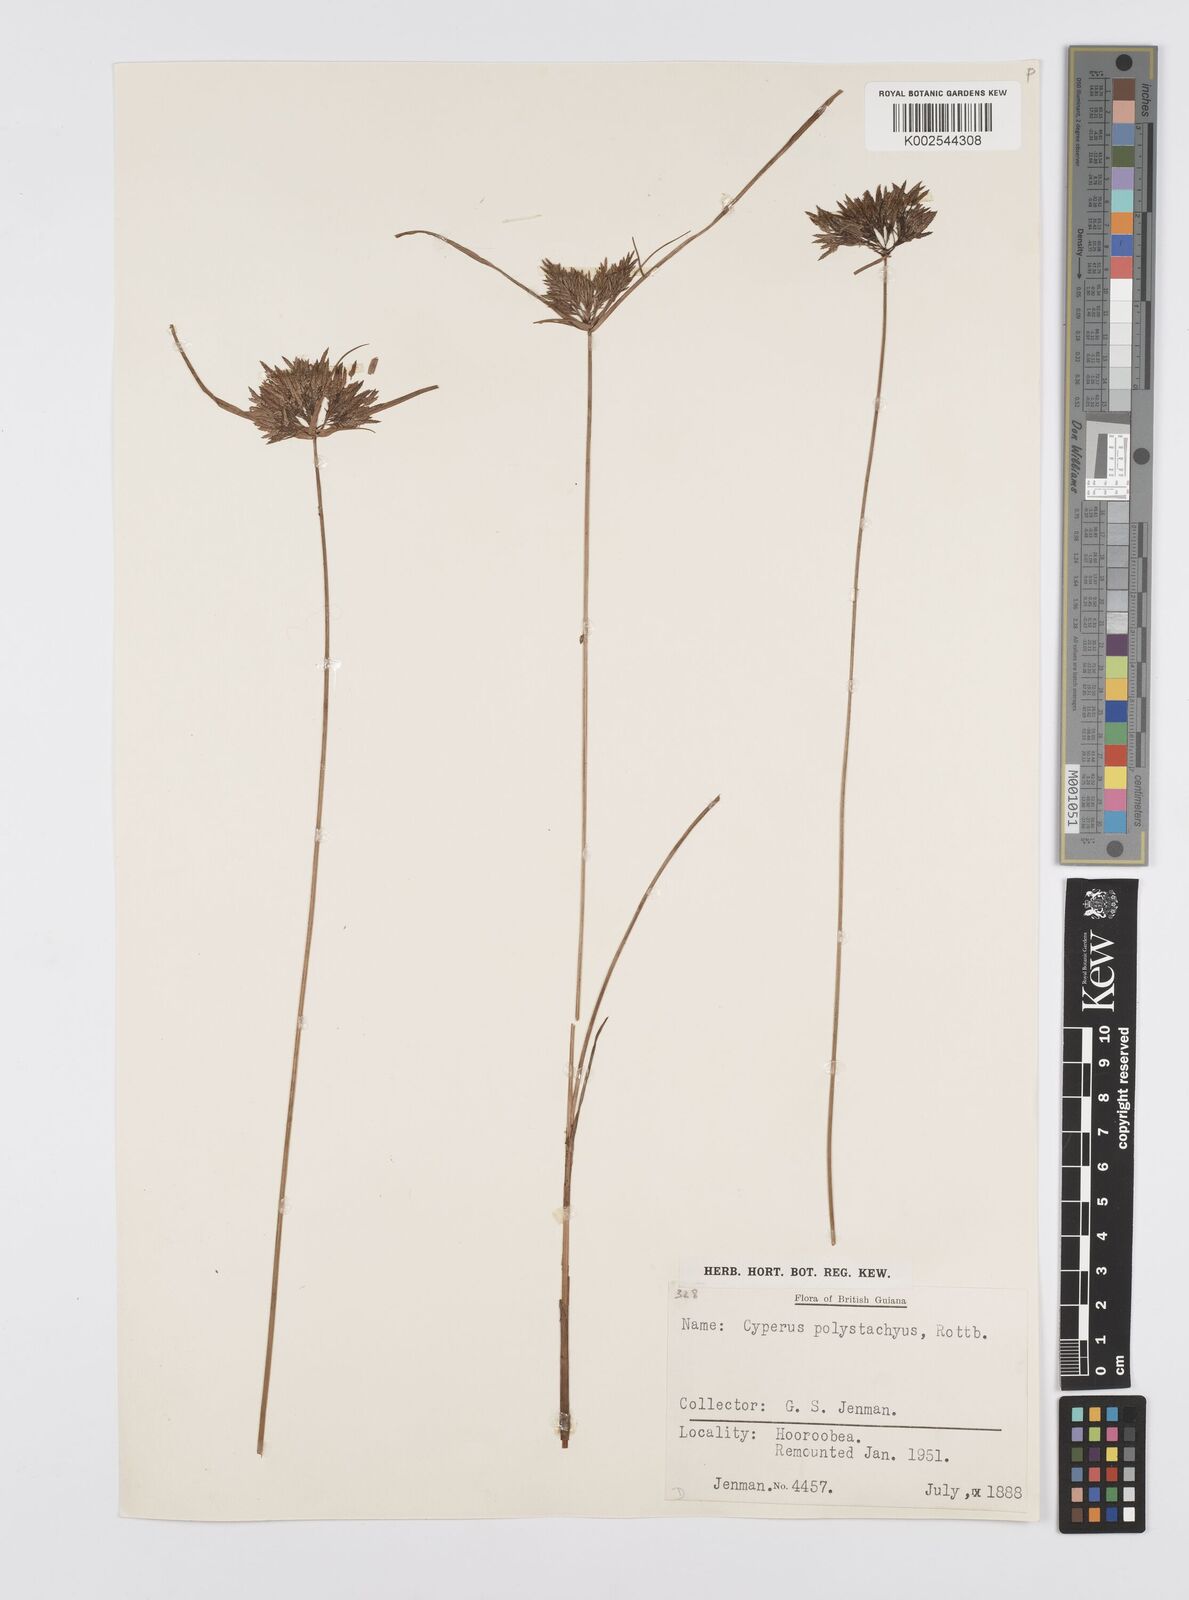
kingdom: Plantae
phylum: Tracheophyta
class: Liliopsida
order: Poales
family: Cyperaceae
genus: Cyperus
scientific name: Cyperus polystachyos
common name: Bunchy flat sedge
